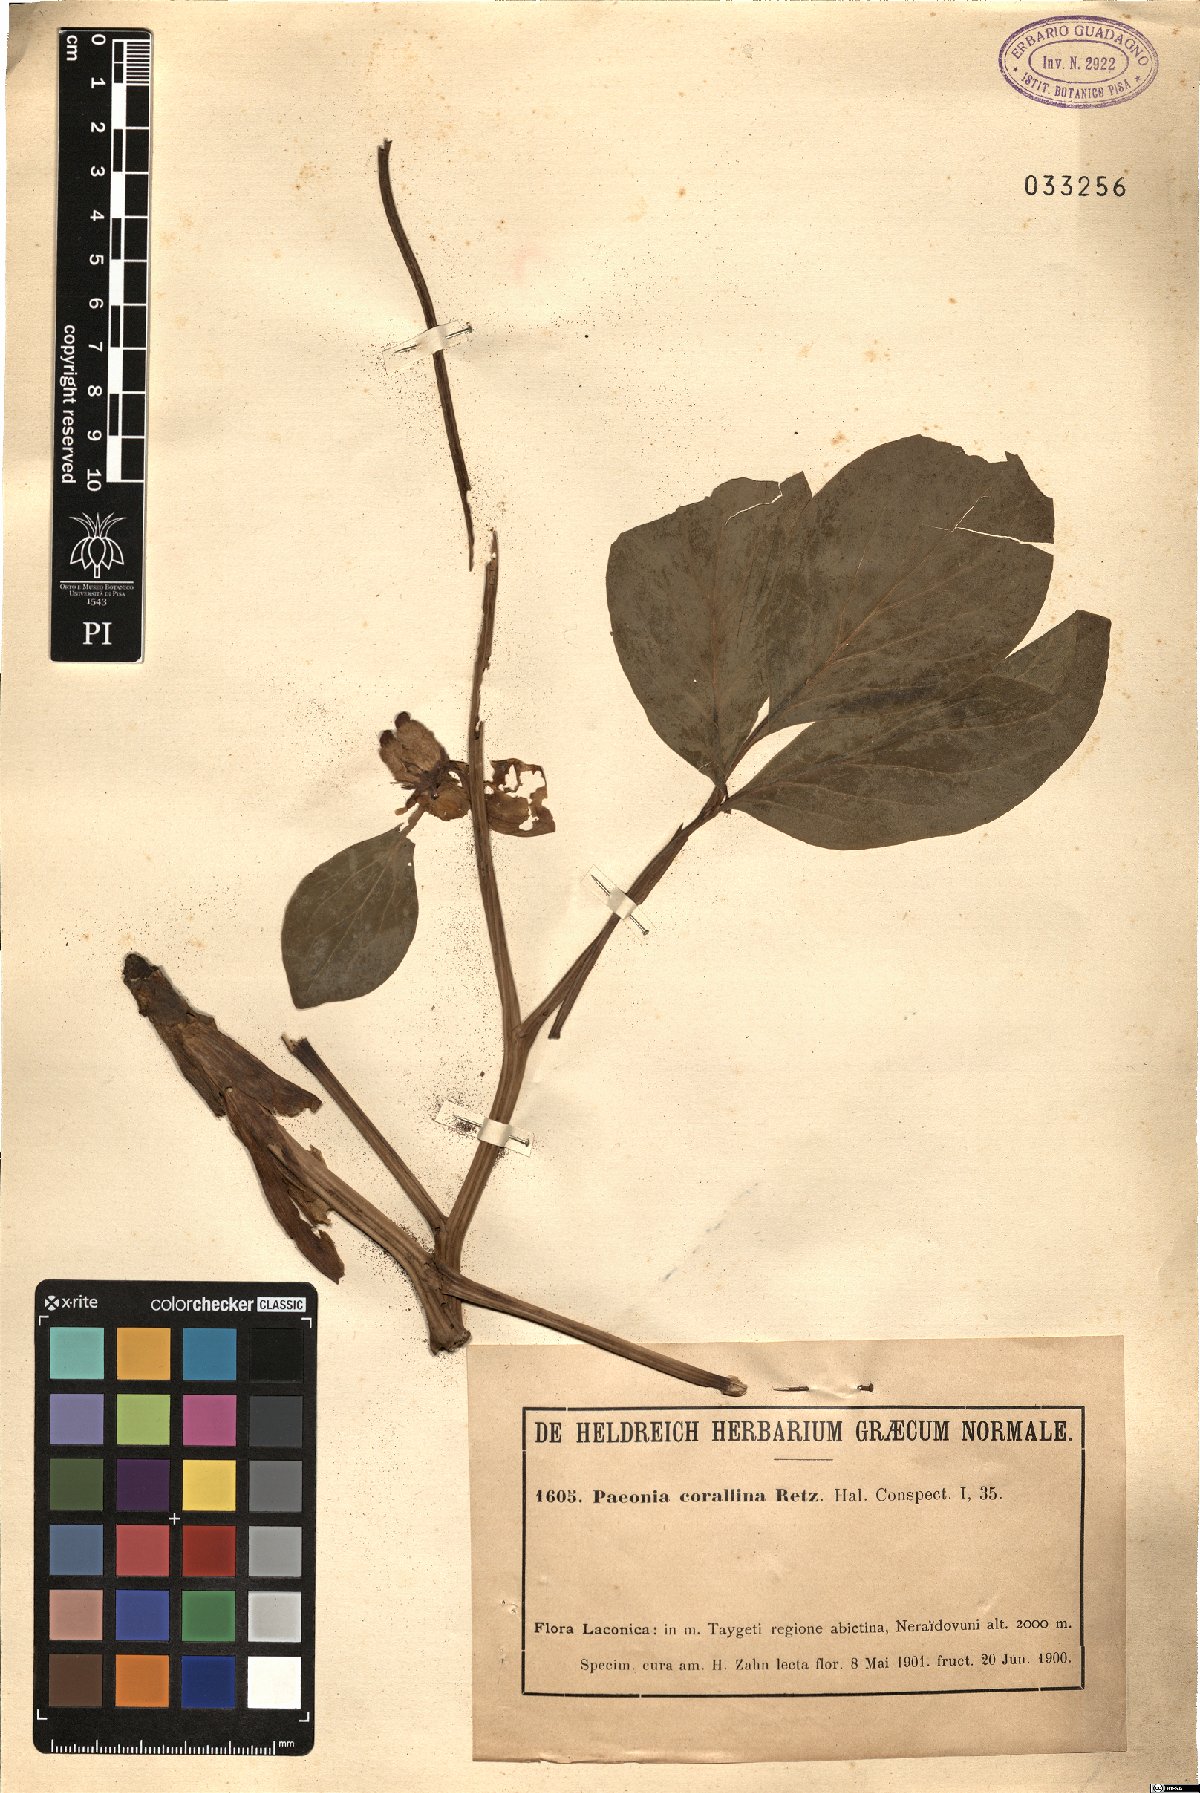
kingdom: Plantae
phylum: Tracheophyta
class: Magnoliopsida
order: Saxifragales
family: Paeoniaceae
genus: Paeonia
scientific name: Paeonia mascula
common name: Peony
